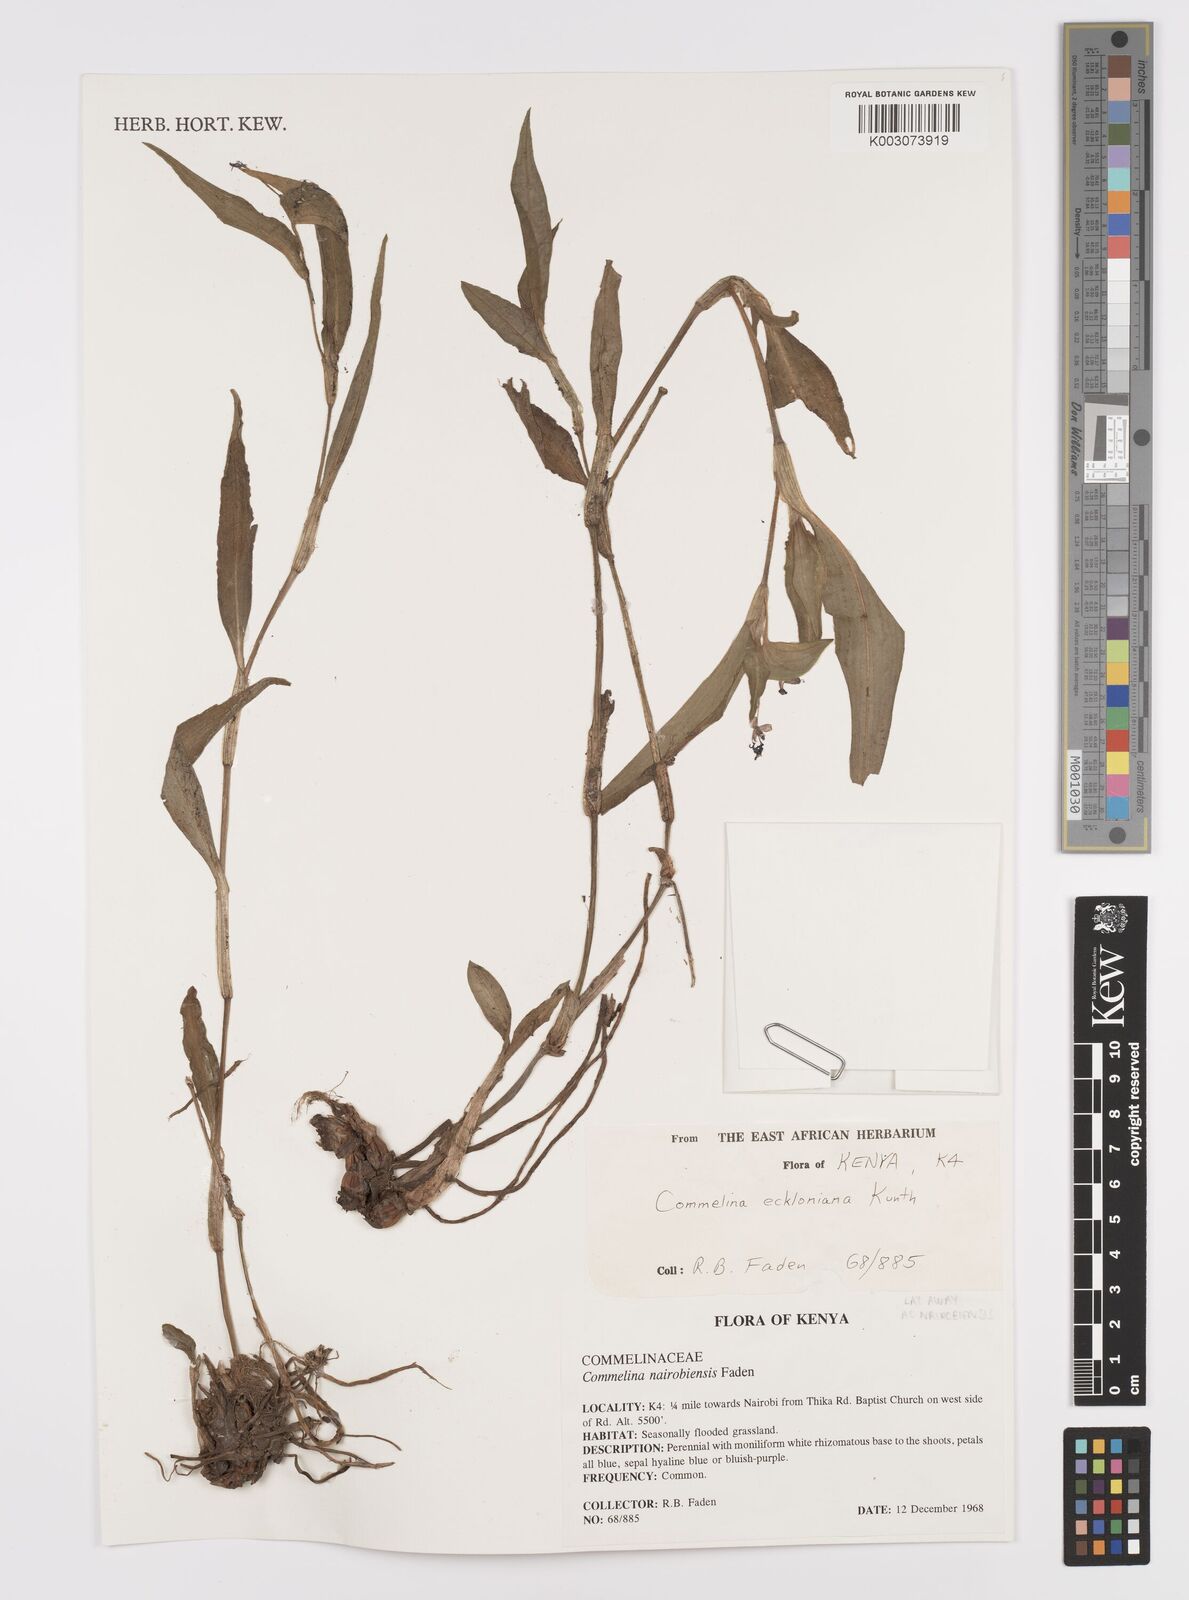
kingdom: Plantae
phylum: Tracheophyta
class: Liliopsida
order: Commelinales
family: Commelinaceae
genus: Commelina
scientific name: Commelina eckloniana
